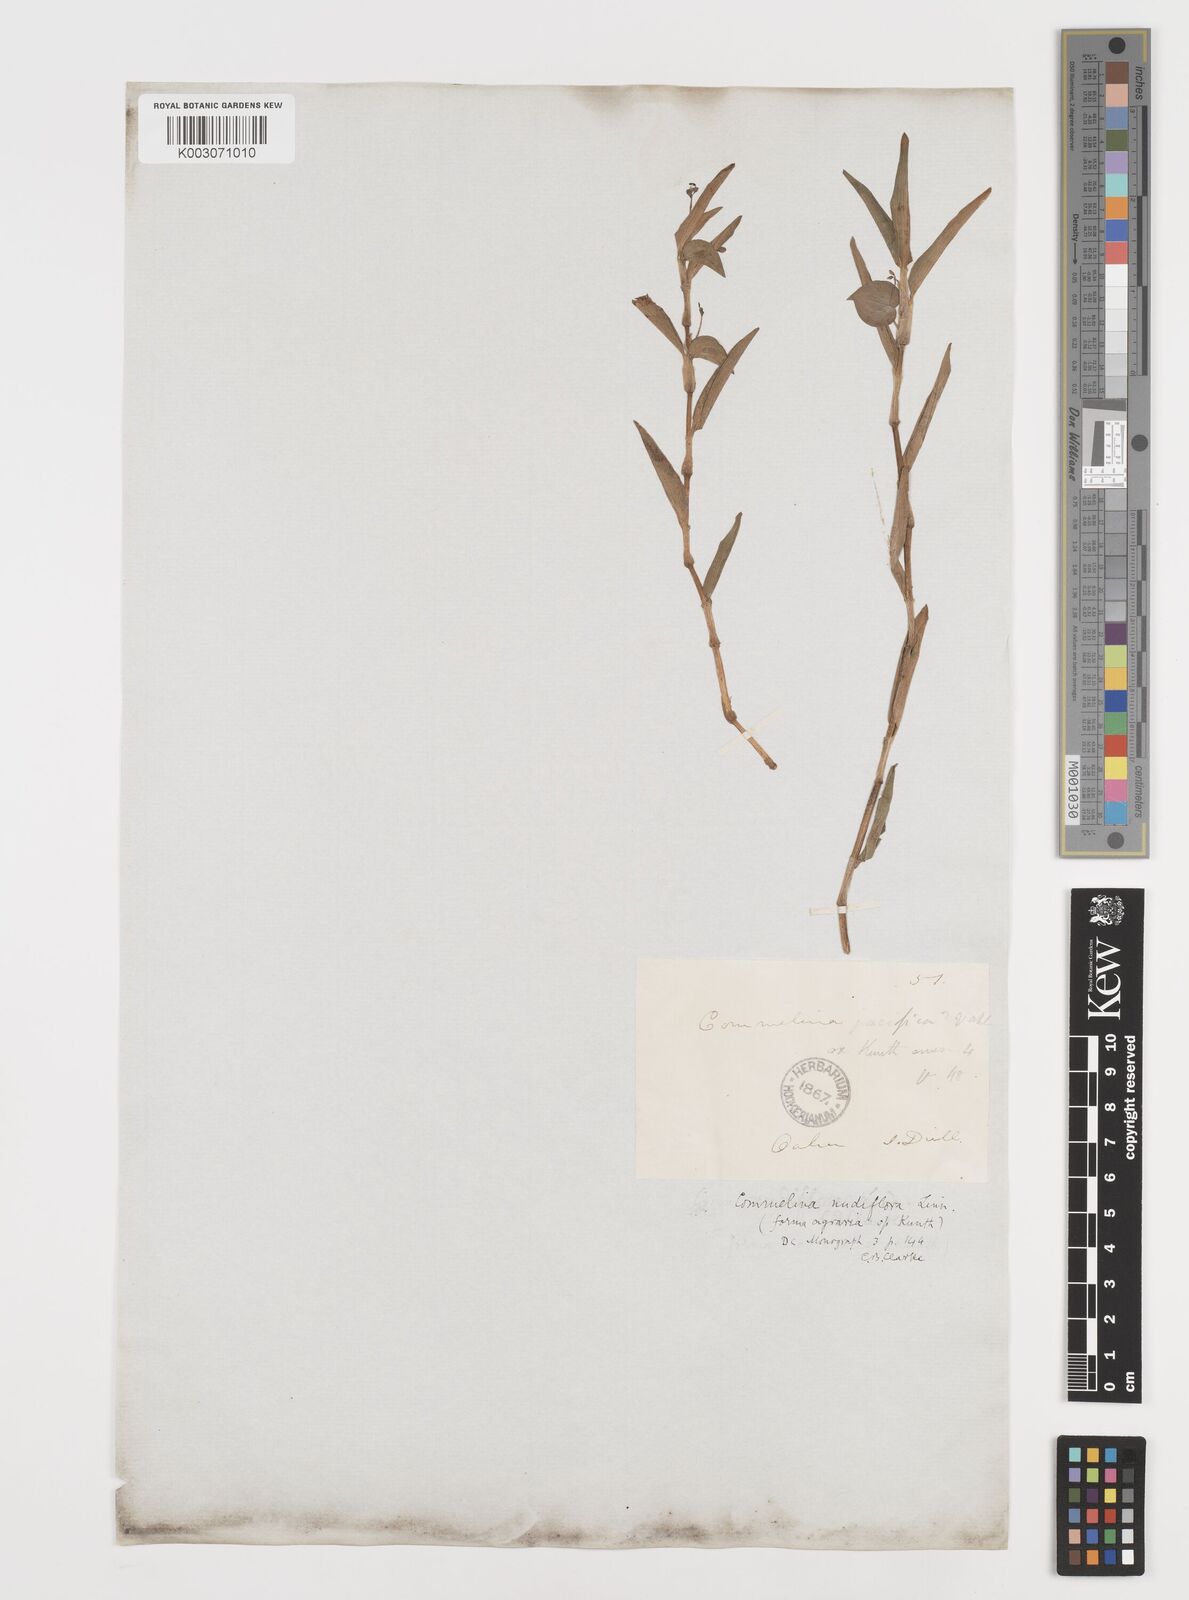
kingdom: Plantae
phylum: Tracheophyta
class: Liliopsida
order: Commelinales
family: Commelinaceae
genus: Murdannia
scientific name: Murdannia nudiflora
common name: Nakedstem dewflower
